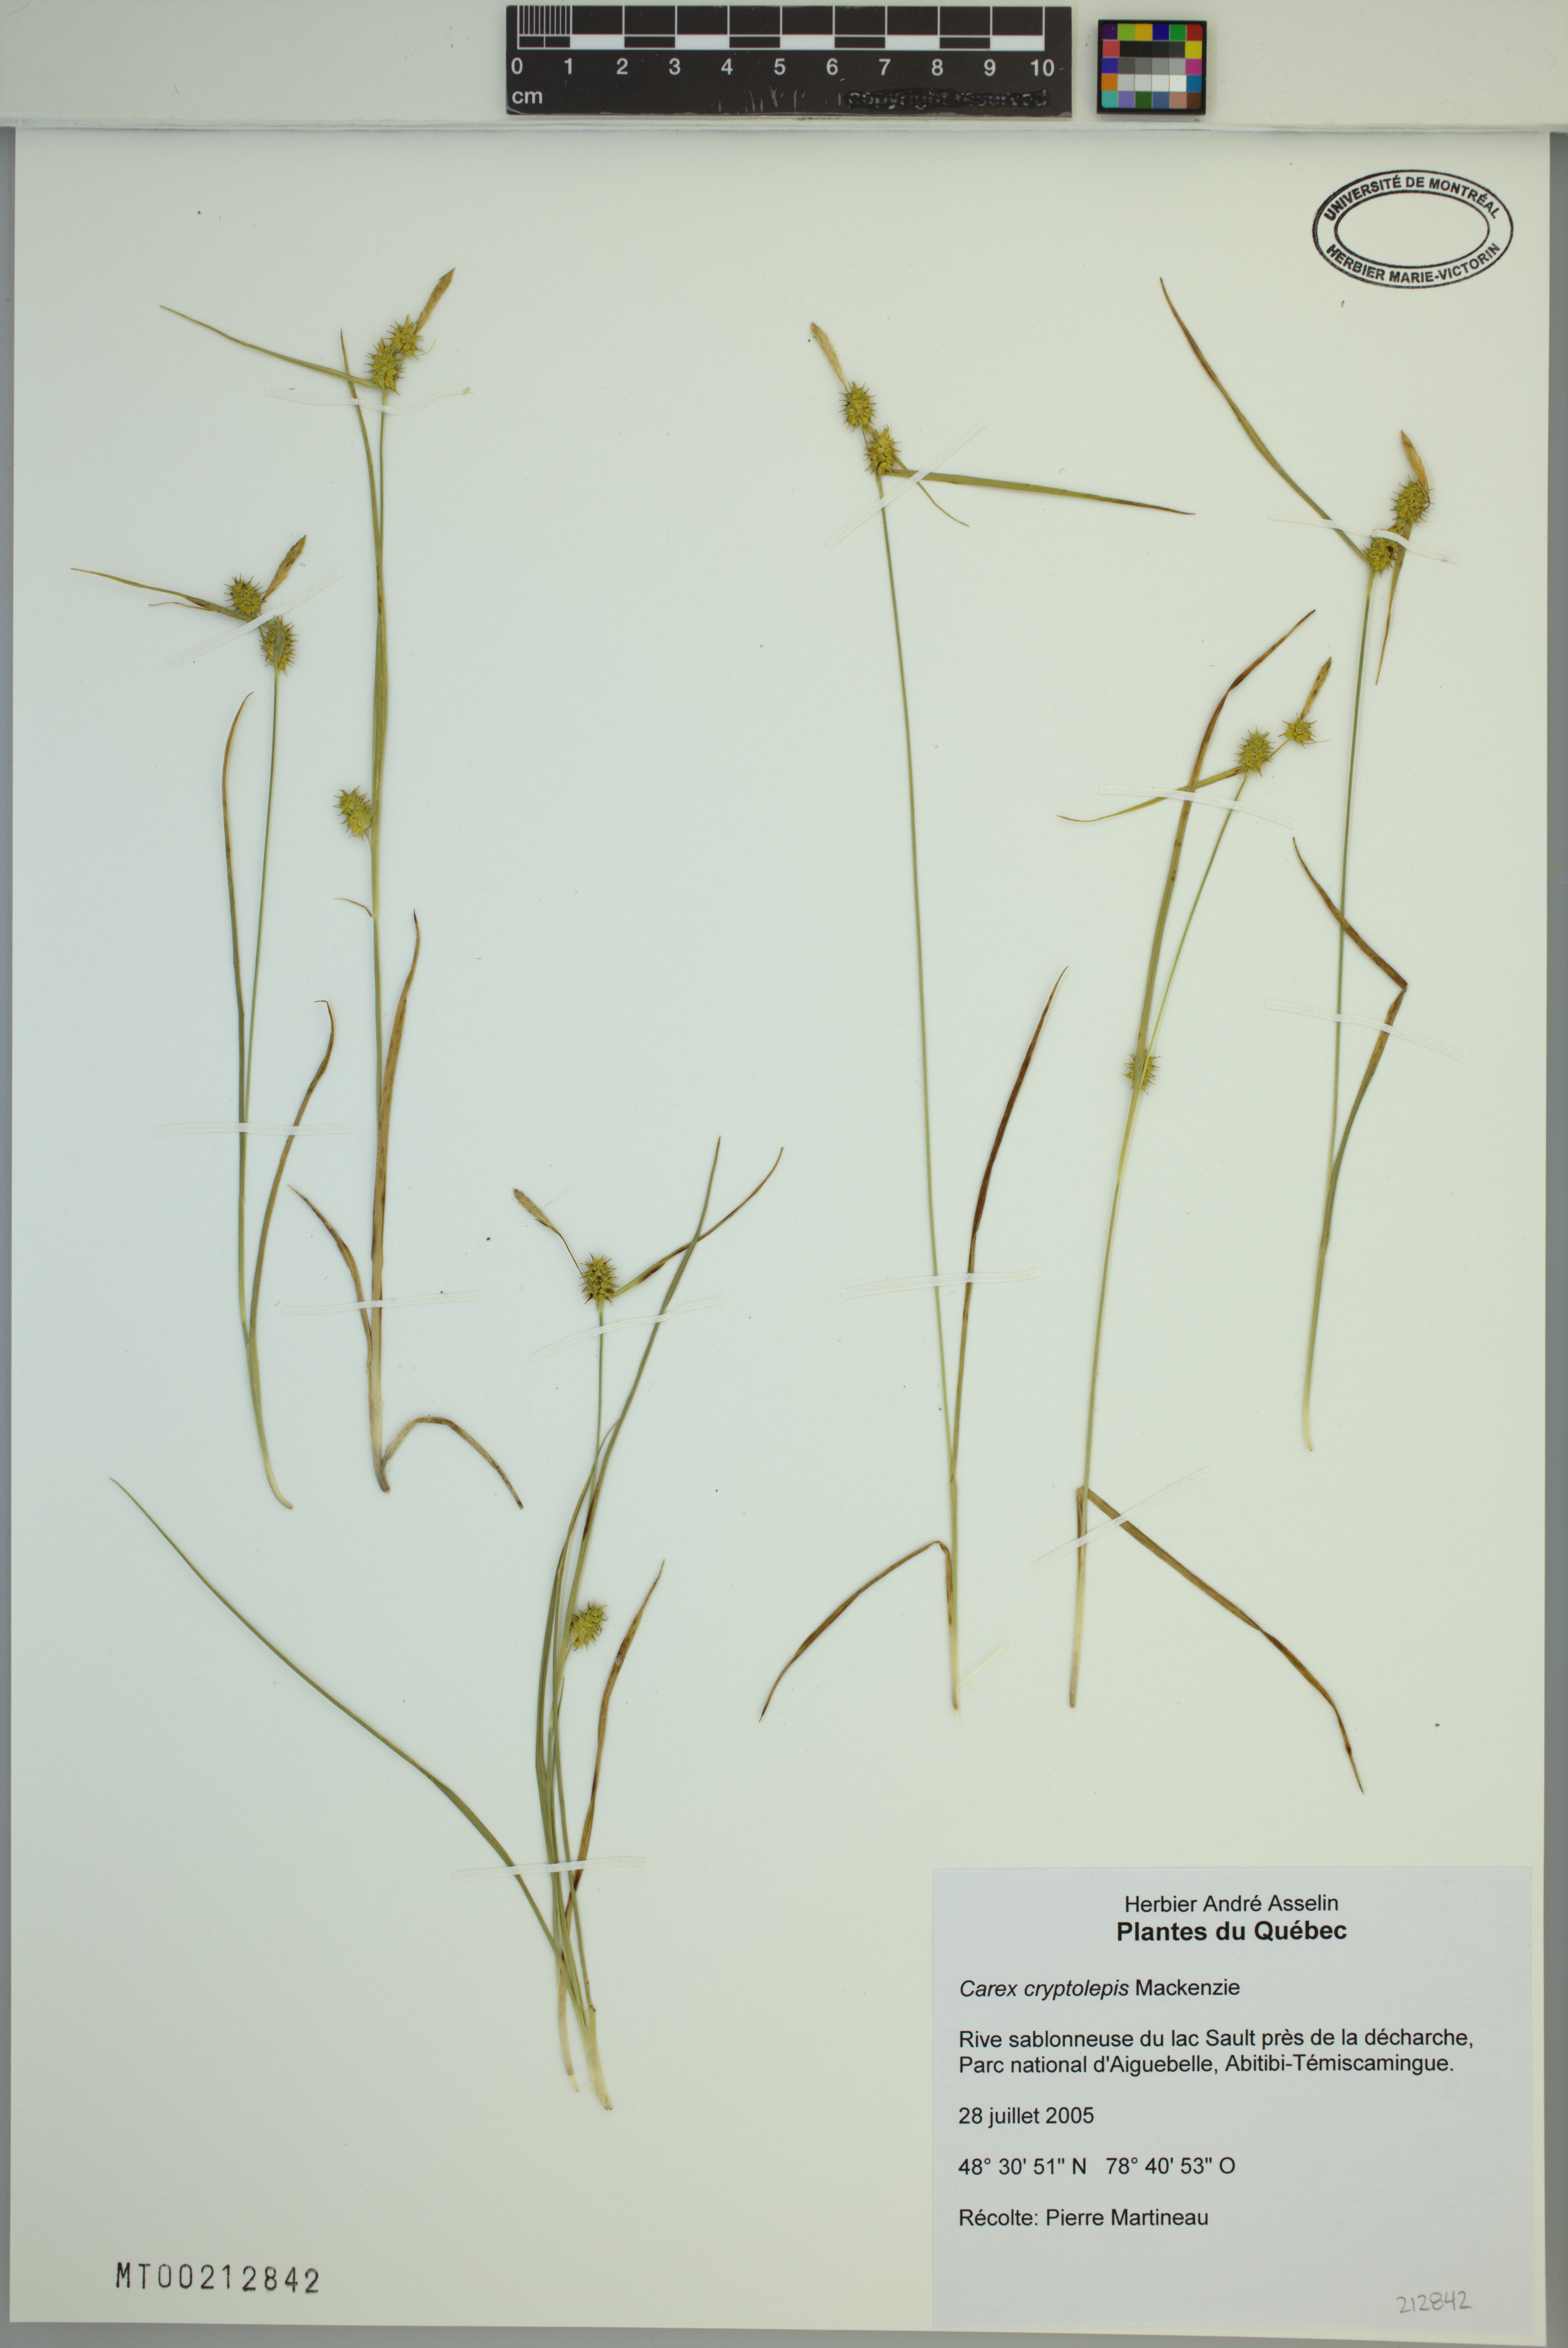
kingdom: Plantae
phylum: Tracheophyta
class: Liliopsida
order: Poales
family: Cyperaceae
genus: Carex
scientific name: Carex cryptolepis
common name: Northeastern sedge
